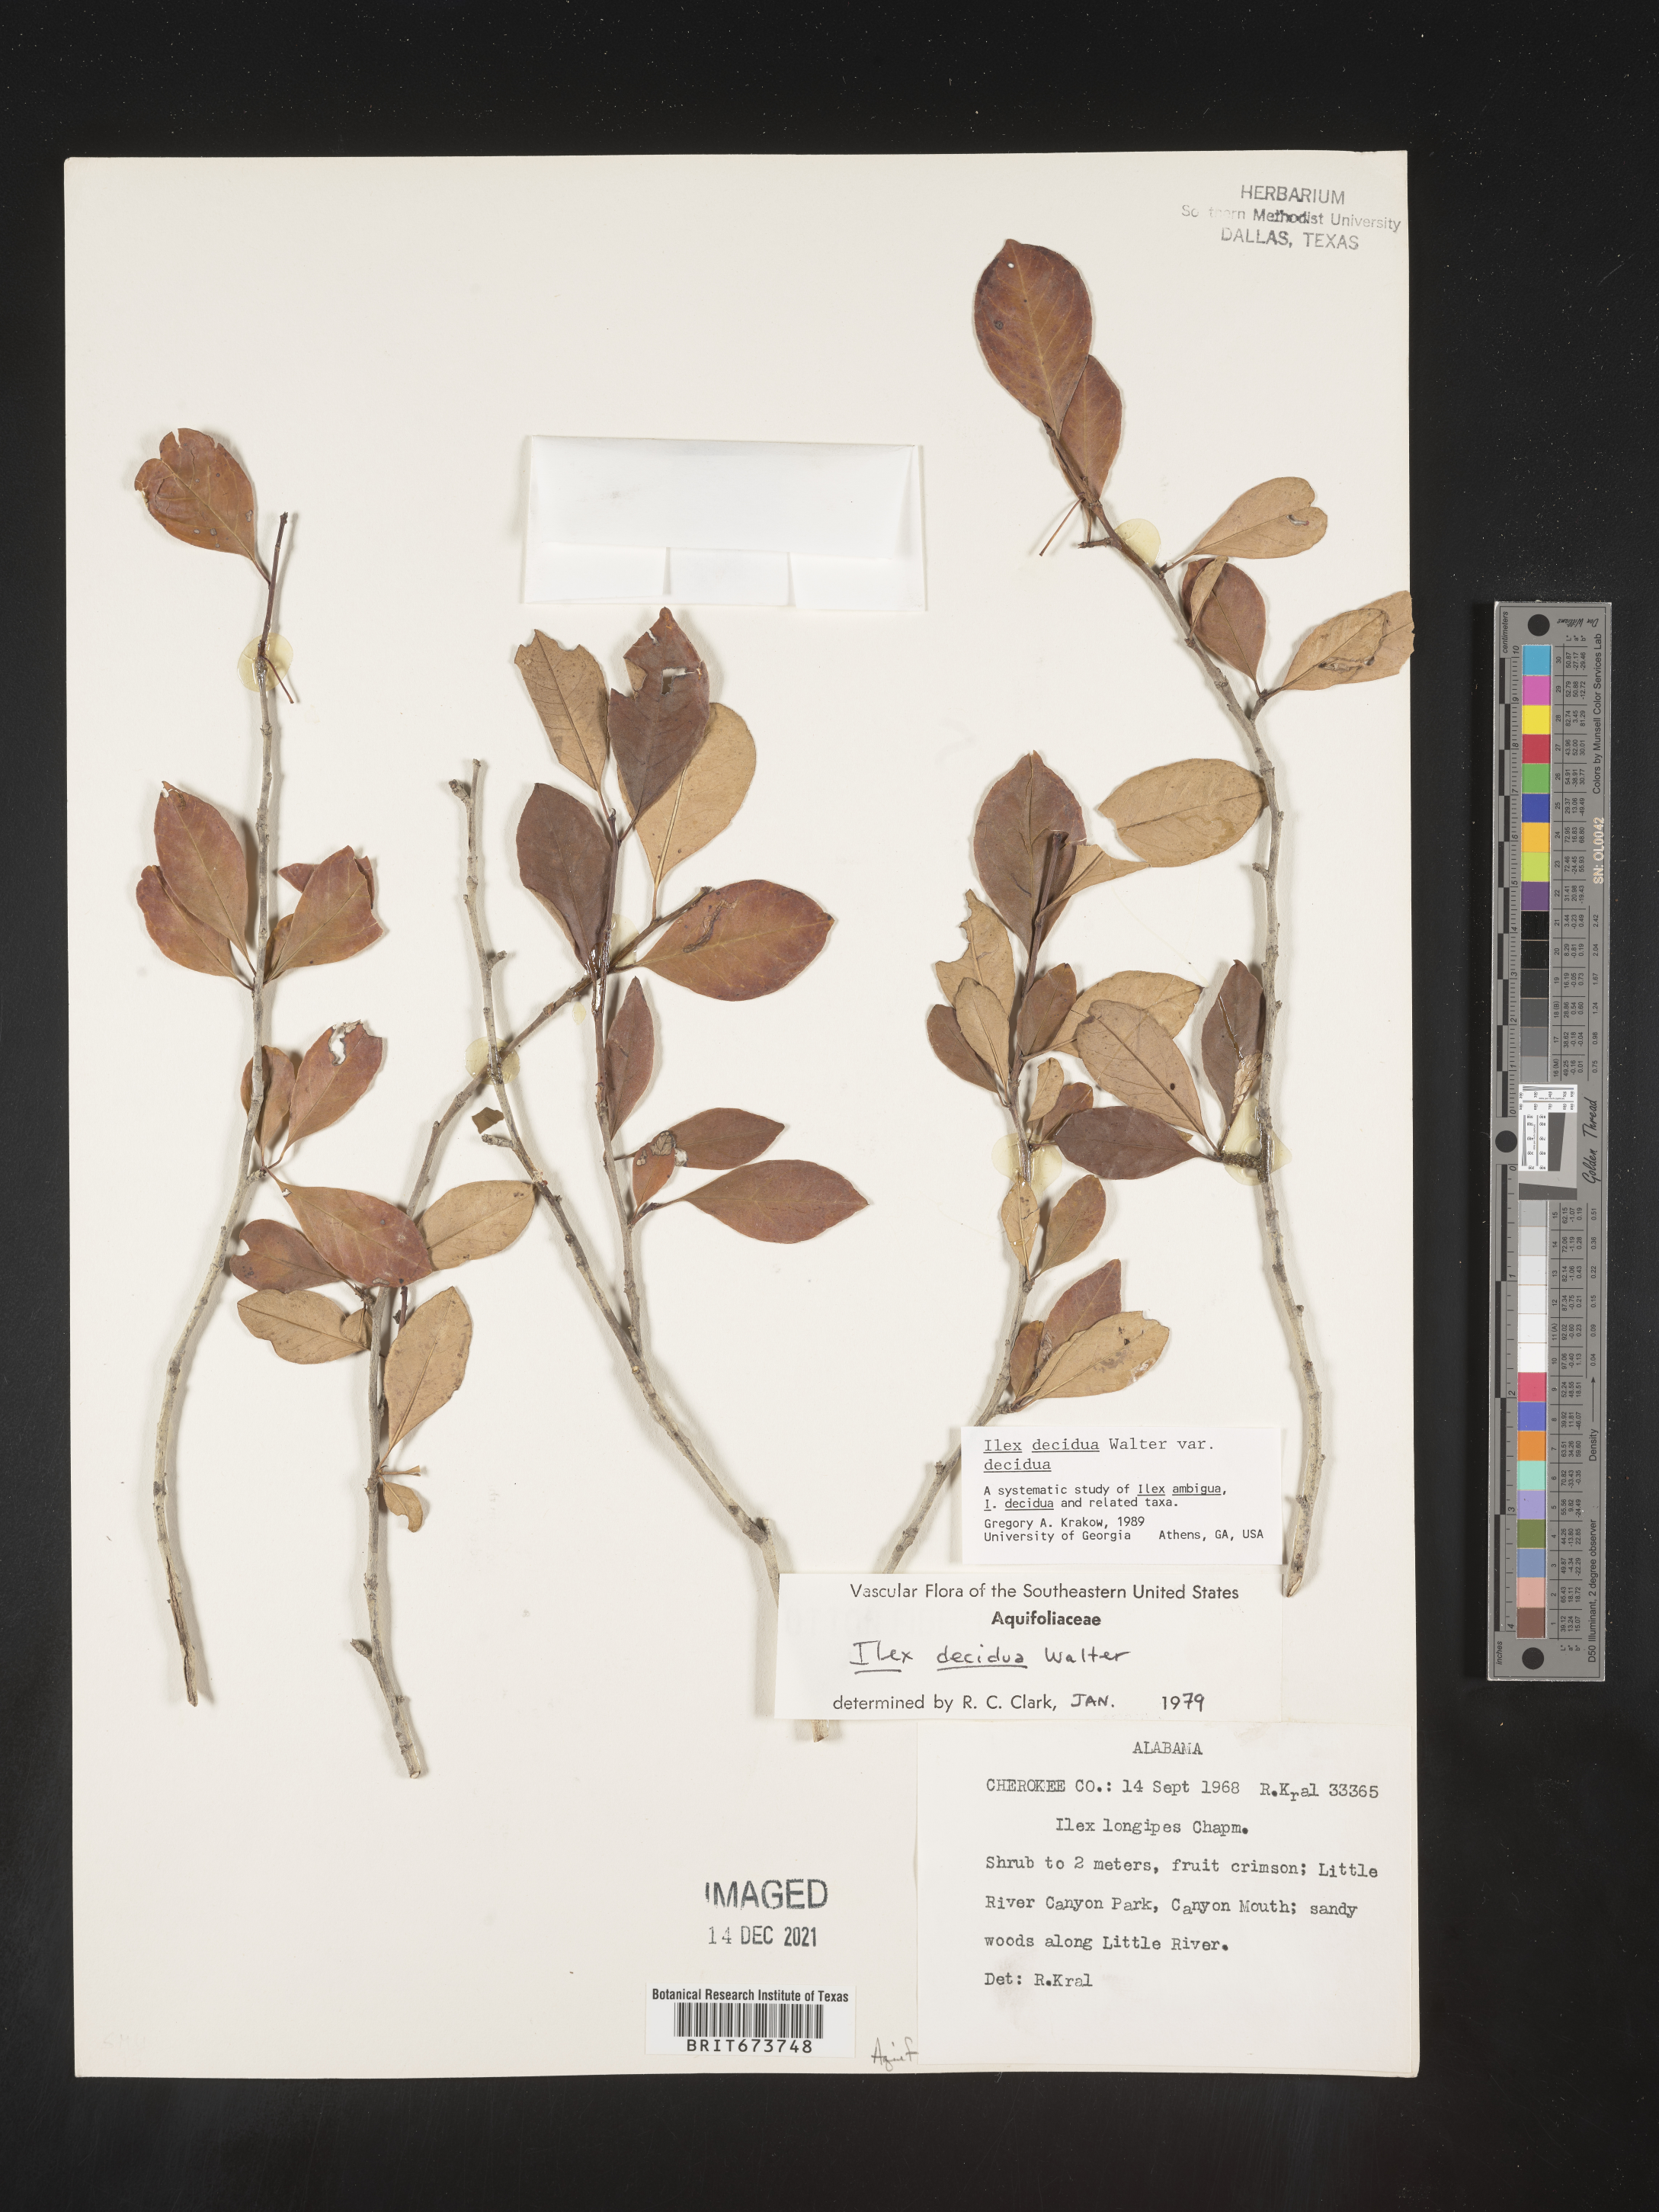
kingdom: Plantae
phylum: Tracheophyta
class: Magnoliopsida
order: Aquifoliales
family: Aquifoliaceae
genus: Ilex
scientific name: Ilex decidua
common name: Possum-haw
